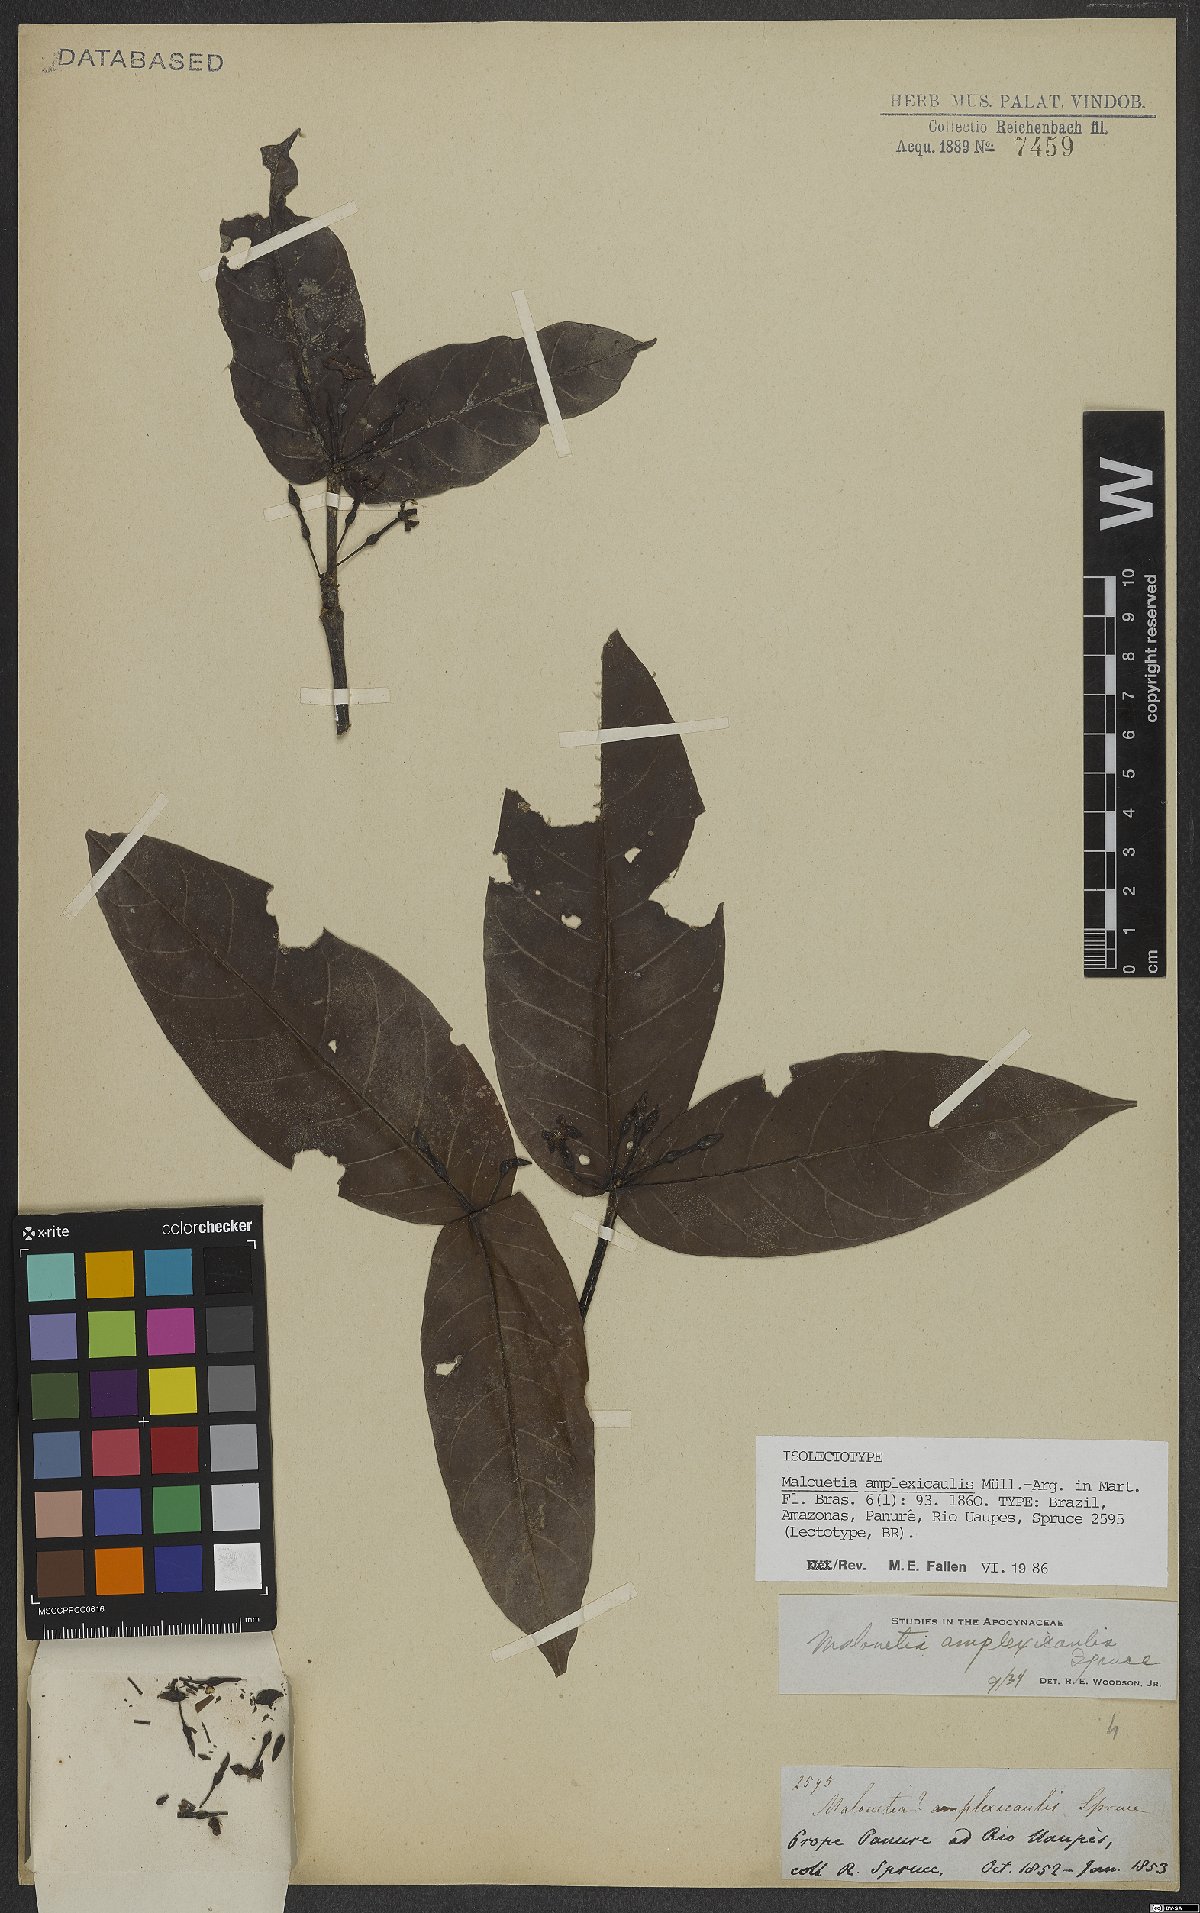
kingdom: Plantae
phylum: Tracheophyta
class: Magnoliopsida
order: Gentianales
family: Apocynaceae
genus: Malouetia
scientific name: Malouetia amplexicaulis
